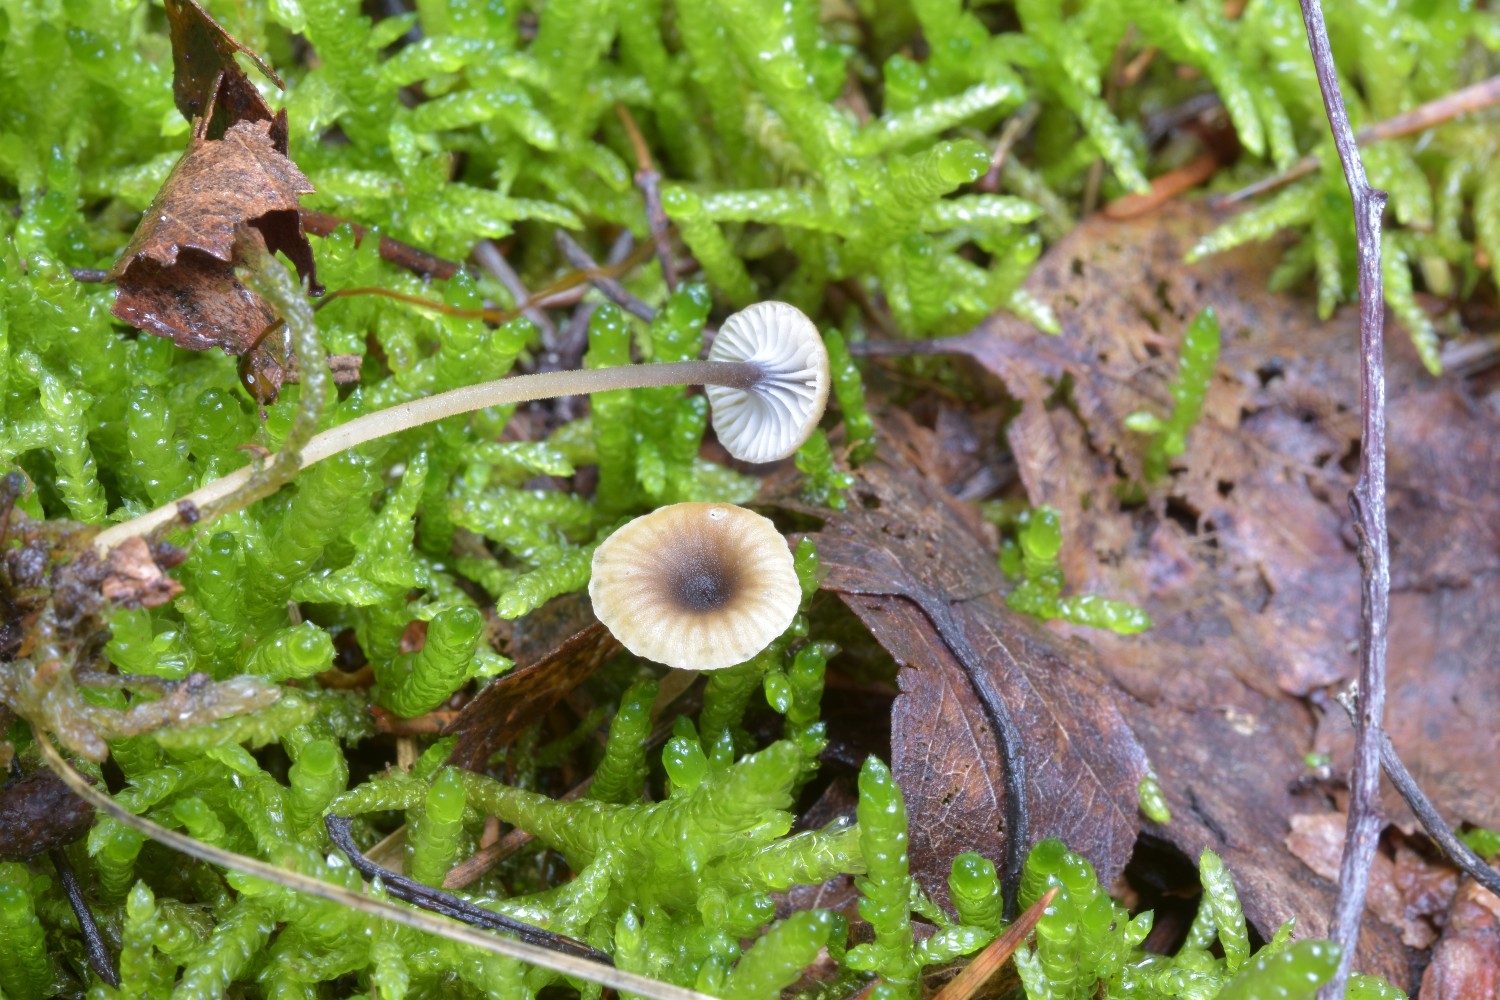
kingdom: Fungi
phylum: Basidiomycota
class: Agaricomycetes
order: Hymenochaetales
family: Rickenellaceae
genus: Rickenella
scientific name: Rickenella swartzii
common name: finstokket mosnavlehat
